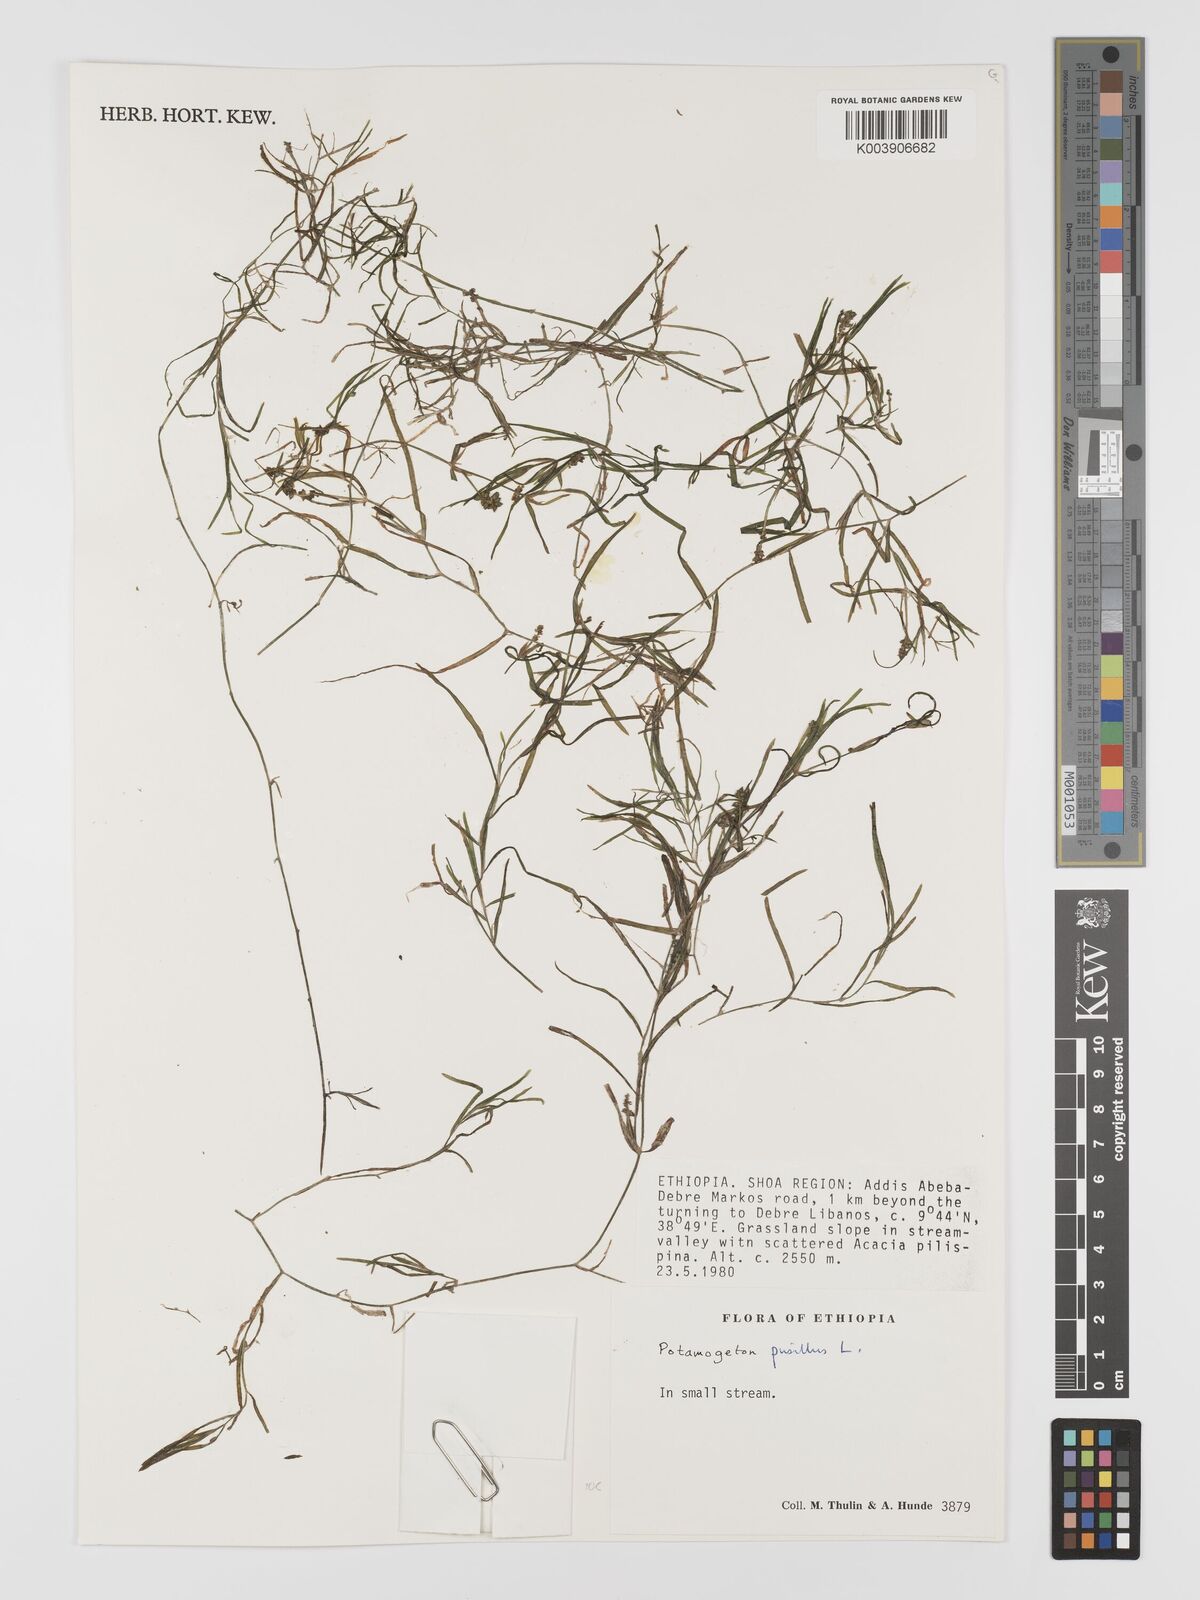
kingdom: Plantae
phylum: Tracheophyta
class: Liliopsida
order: Alismatales
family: Potamogetonaceae
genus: Potamogeton
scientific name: Potamogeton parvifolius
